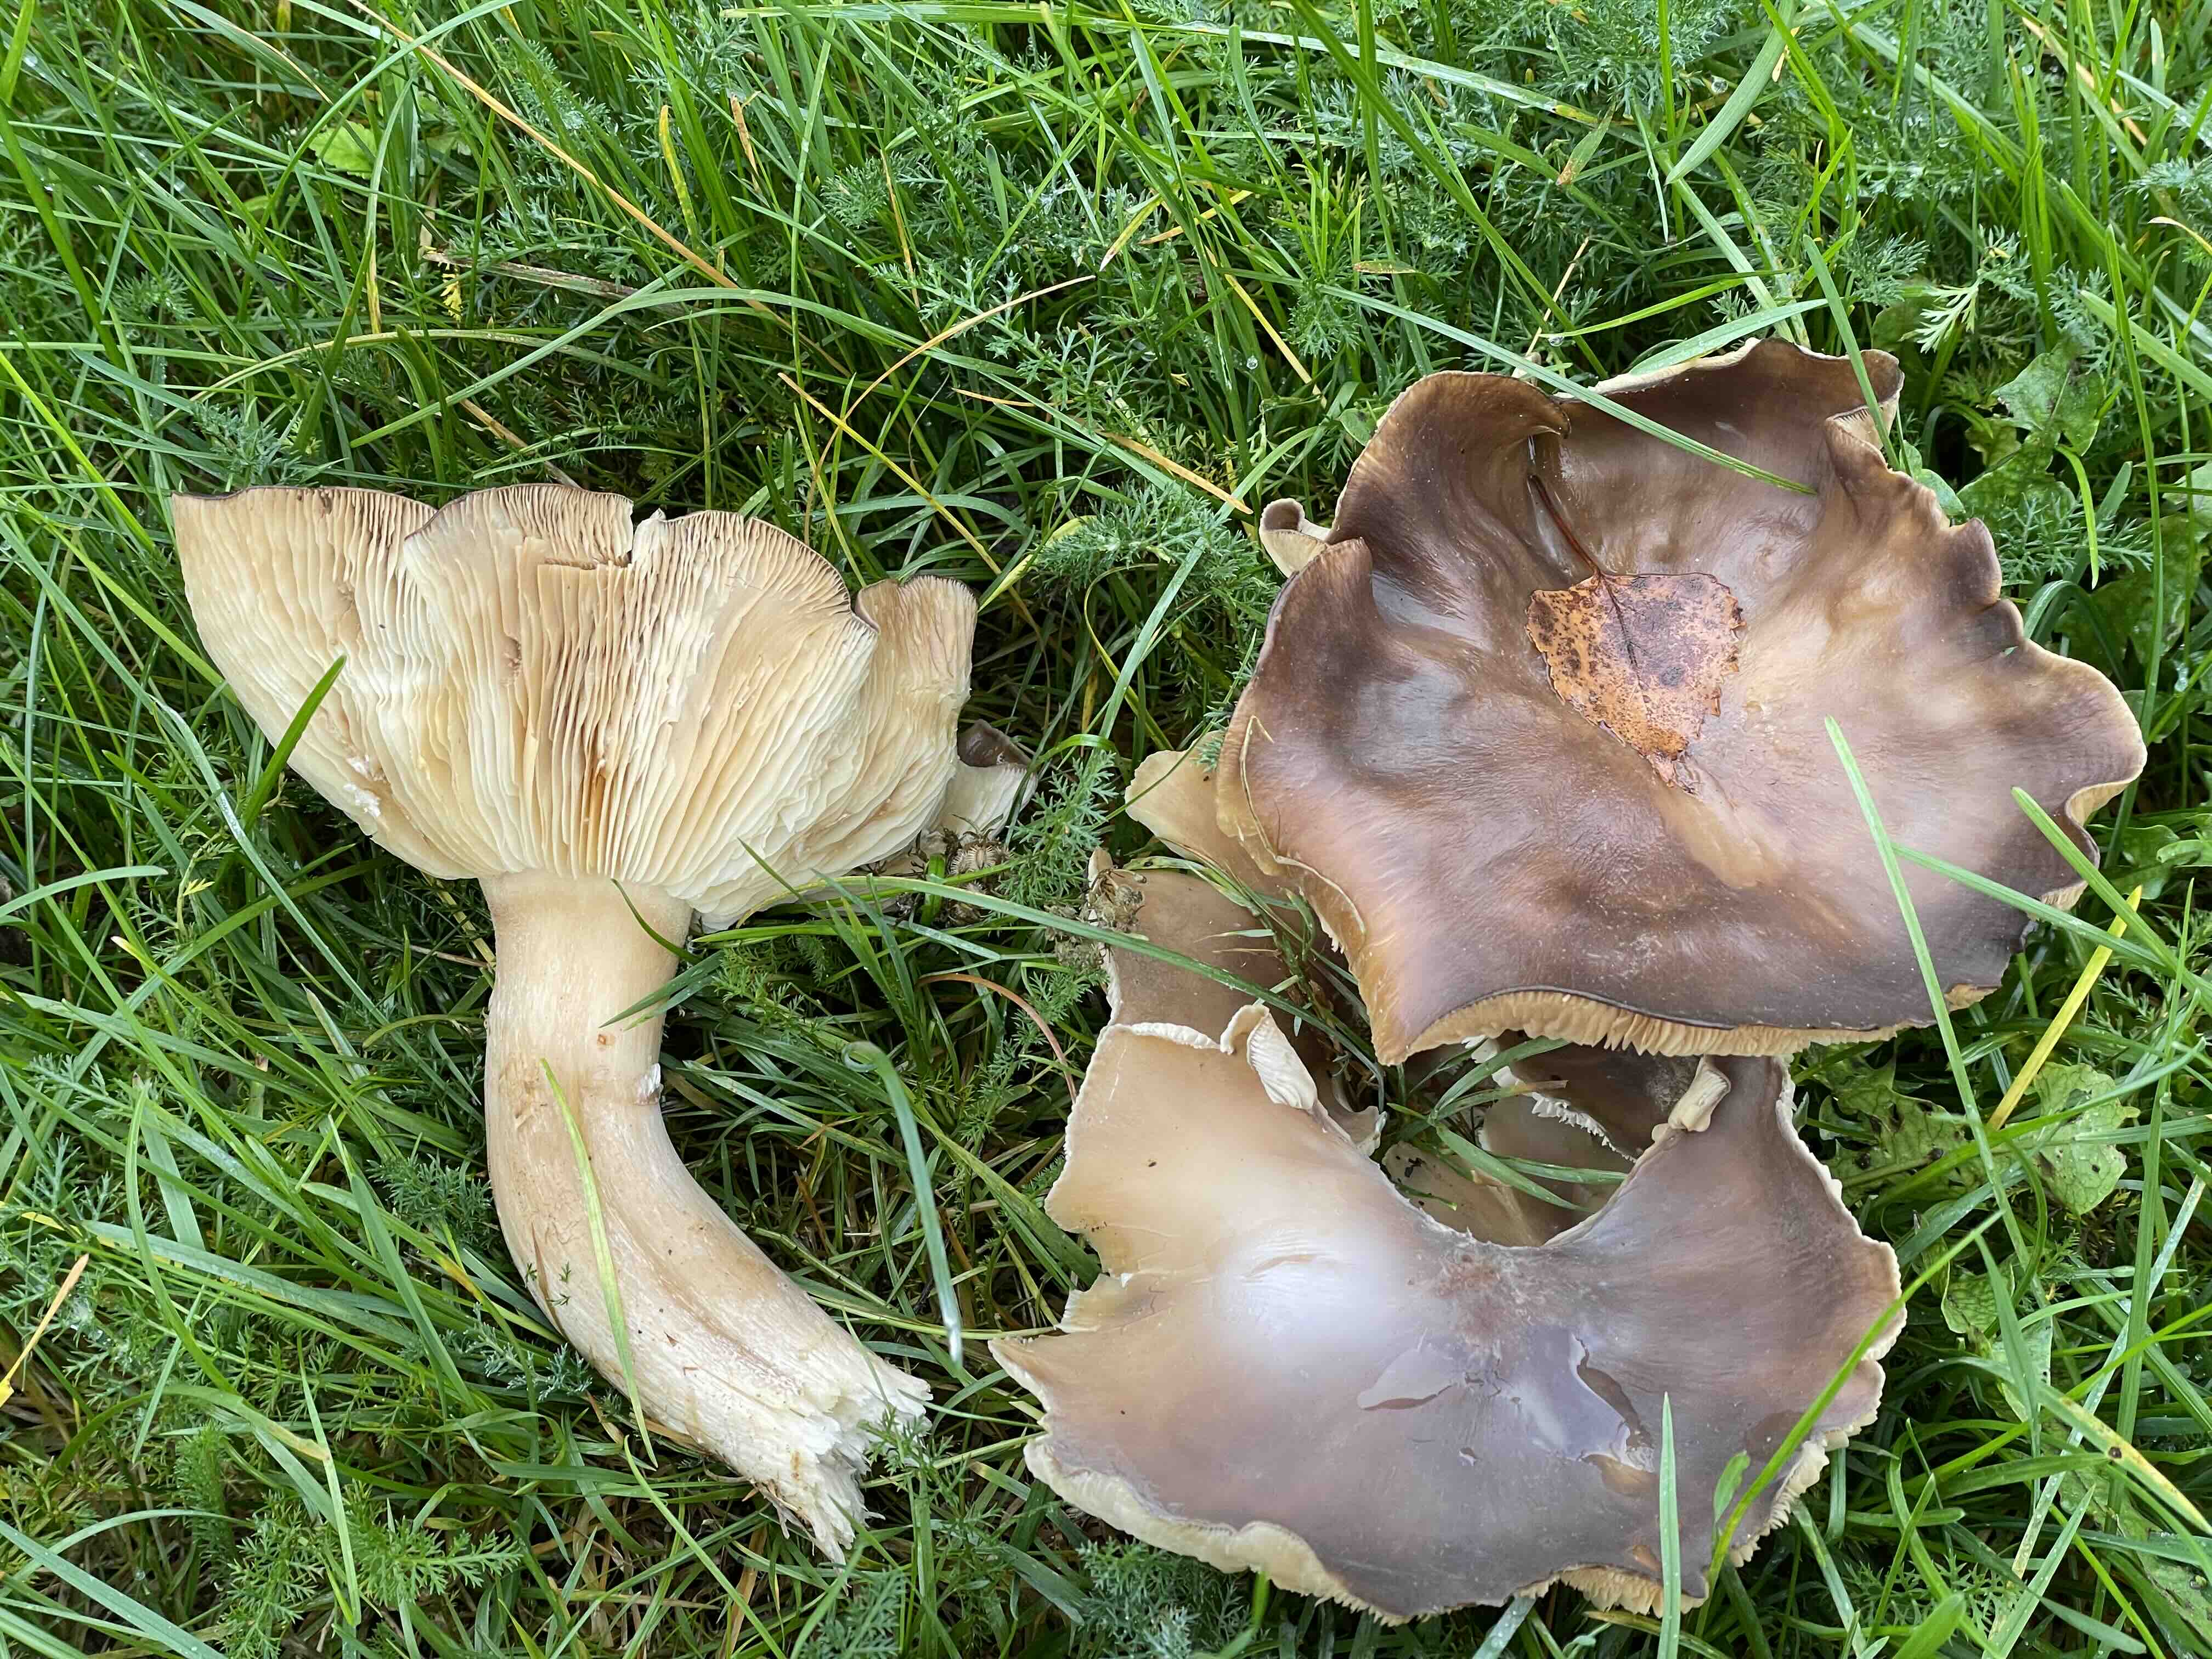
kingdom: Fungi
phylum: Basidiomycota
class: Agaricomycetes
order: Agaricales
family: Tricholomataceae
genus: Melanoleuca
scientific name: Melanoleuca
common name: munkehat
